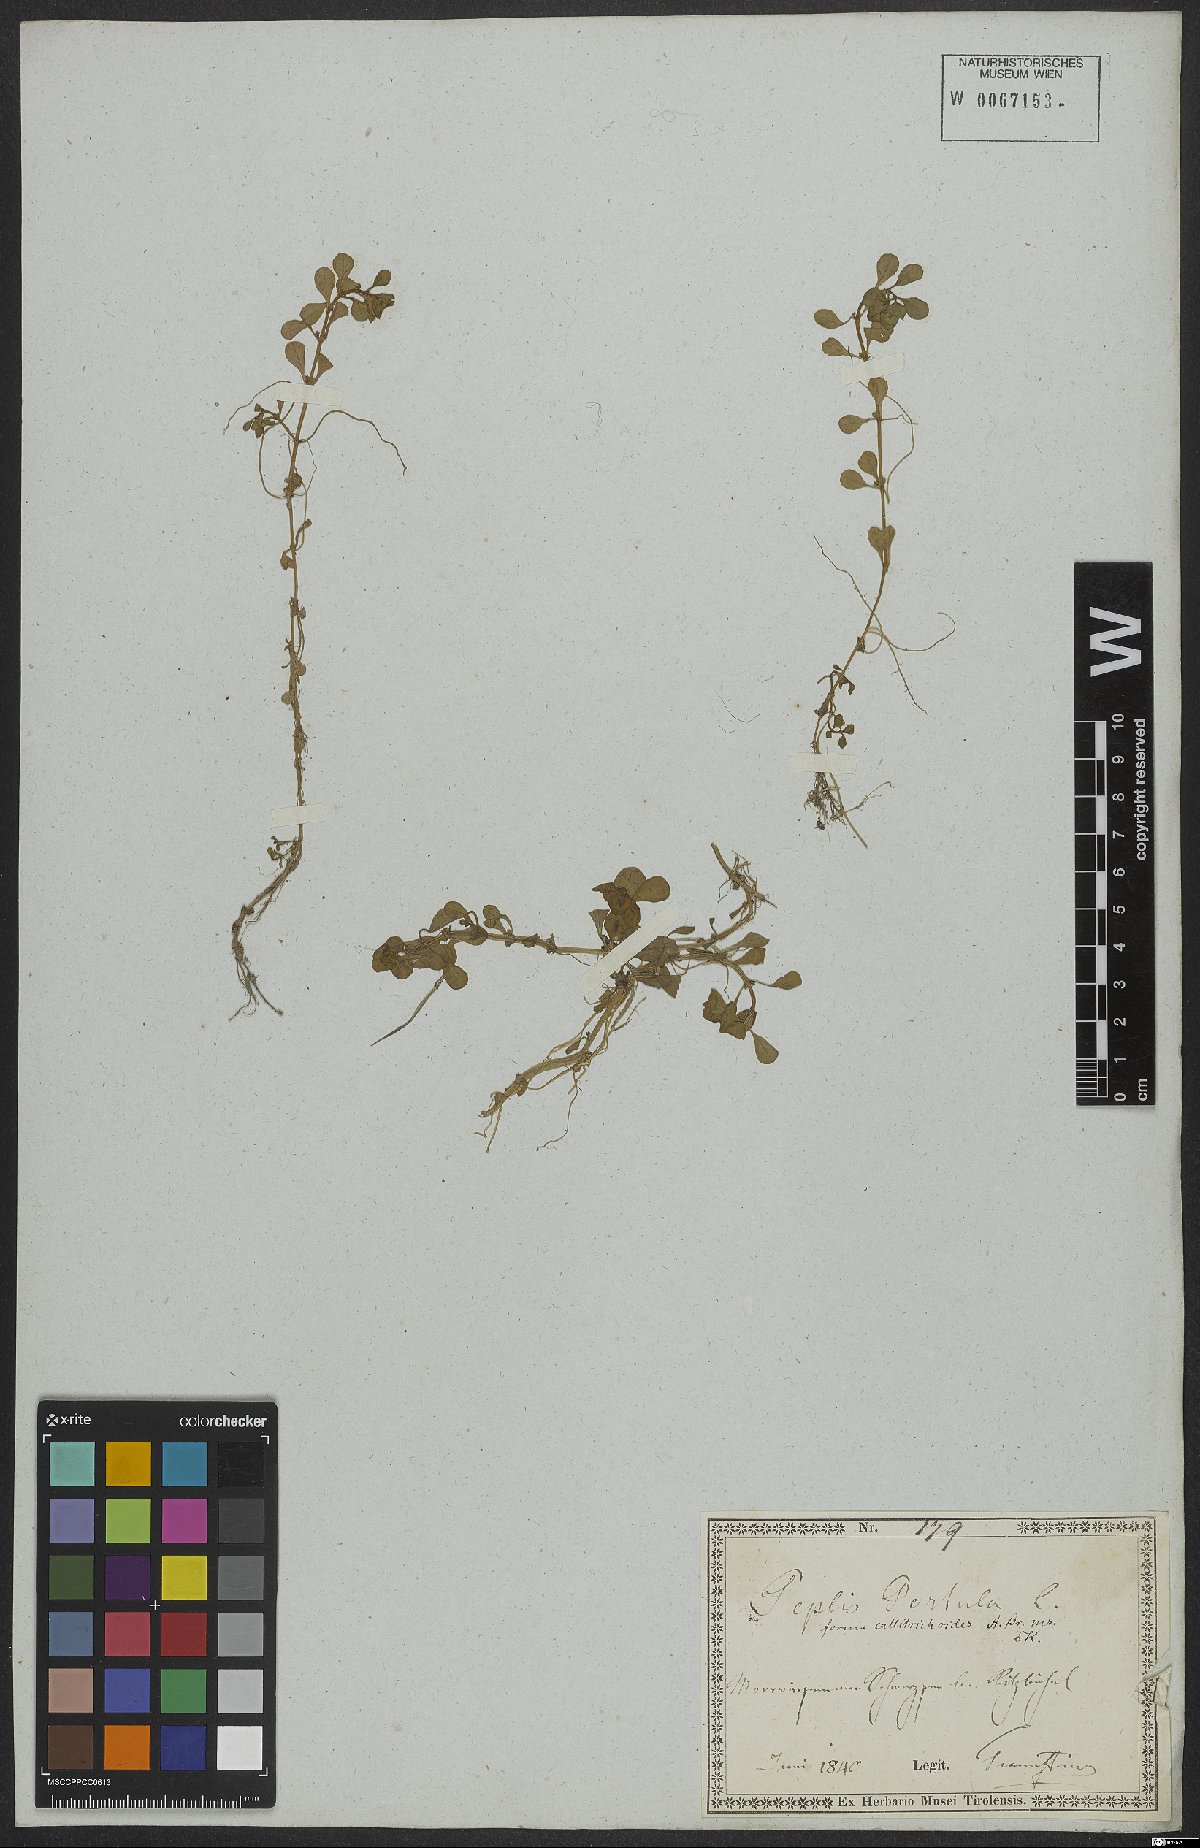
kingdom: Plantae
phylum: Tracheophyta
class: Magnoliopsida
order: Myrtales
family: Lythraceae
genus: Lythrum
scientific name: Lythrum portula
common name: Water purslane
